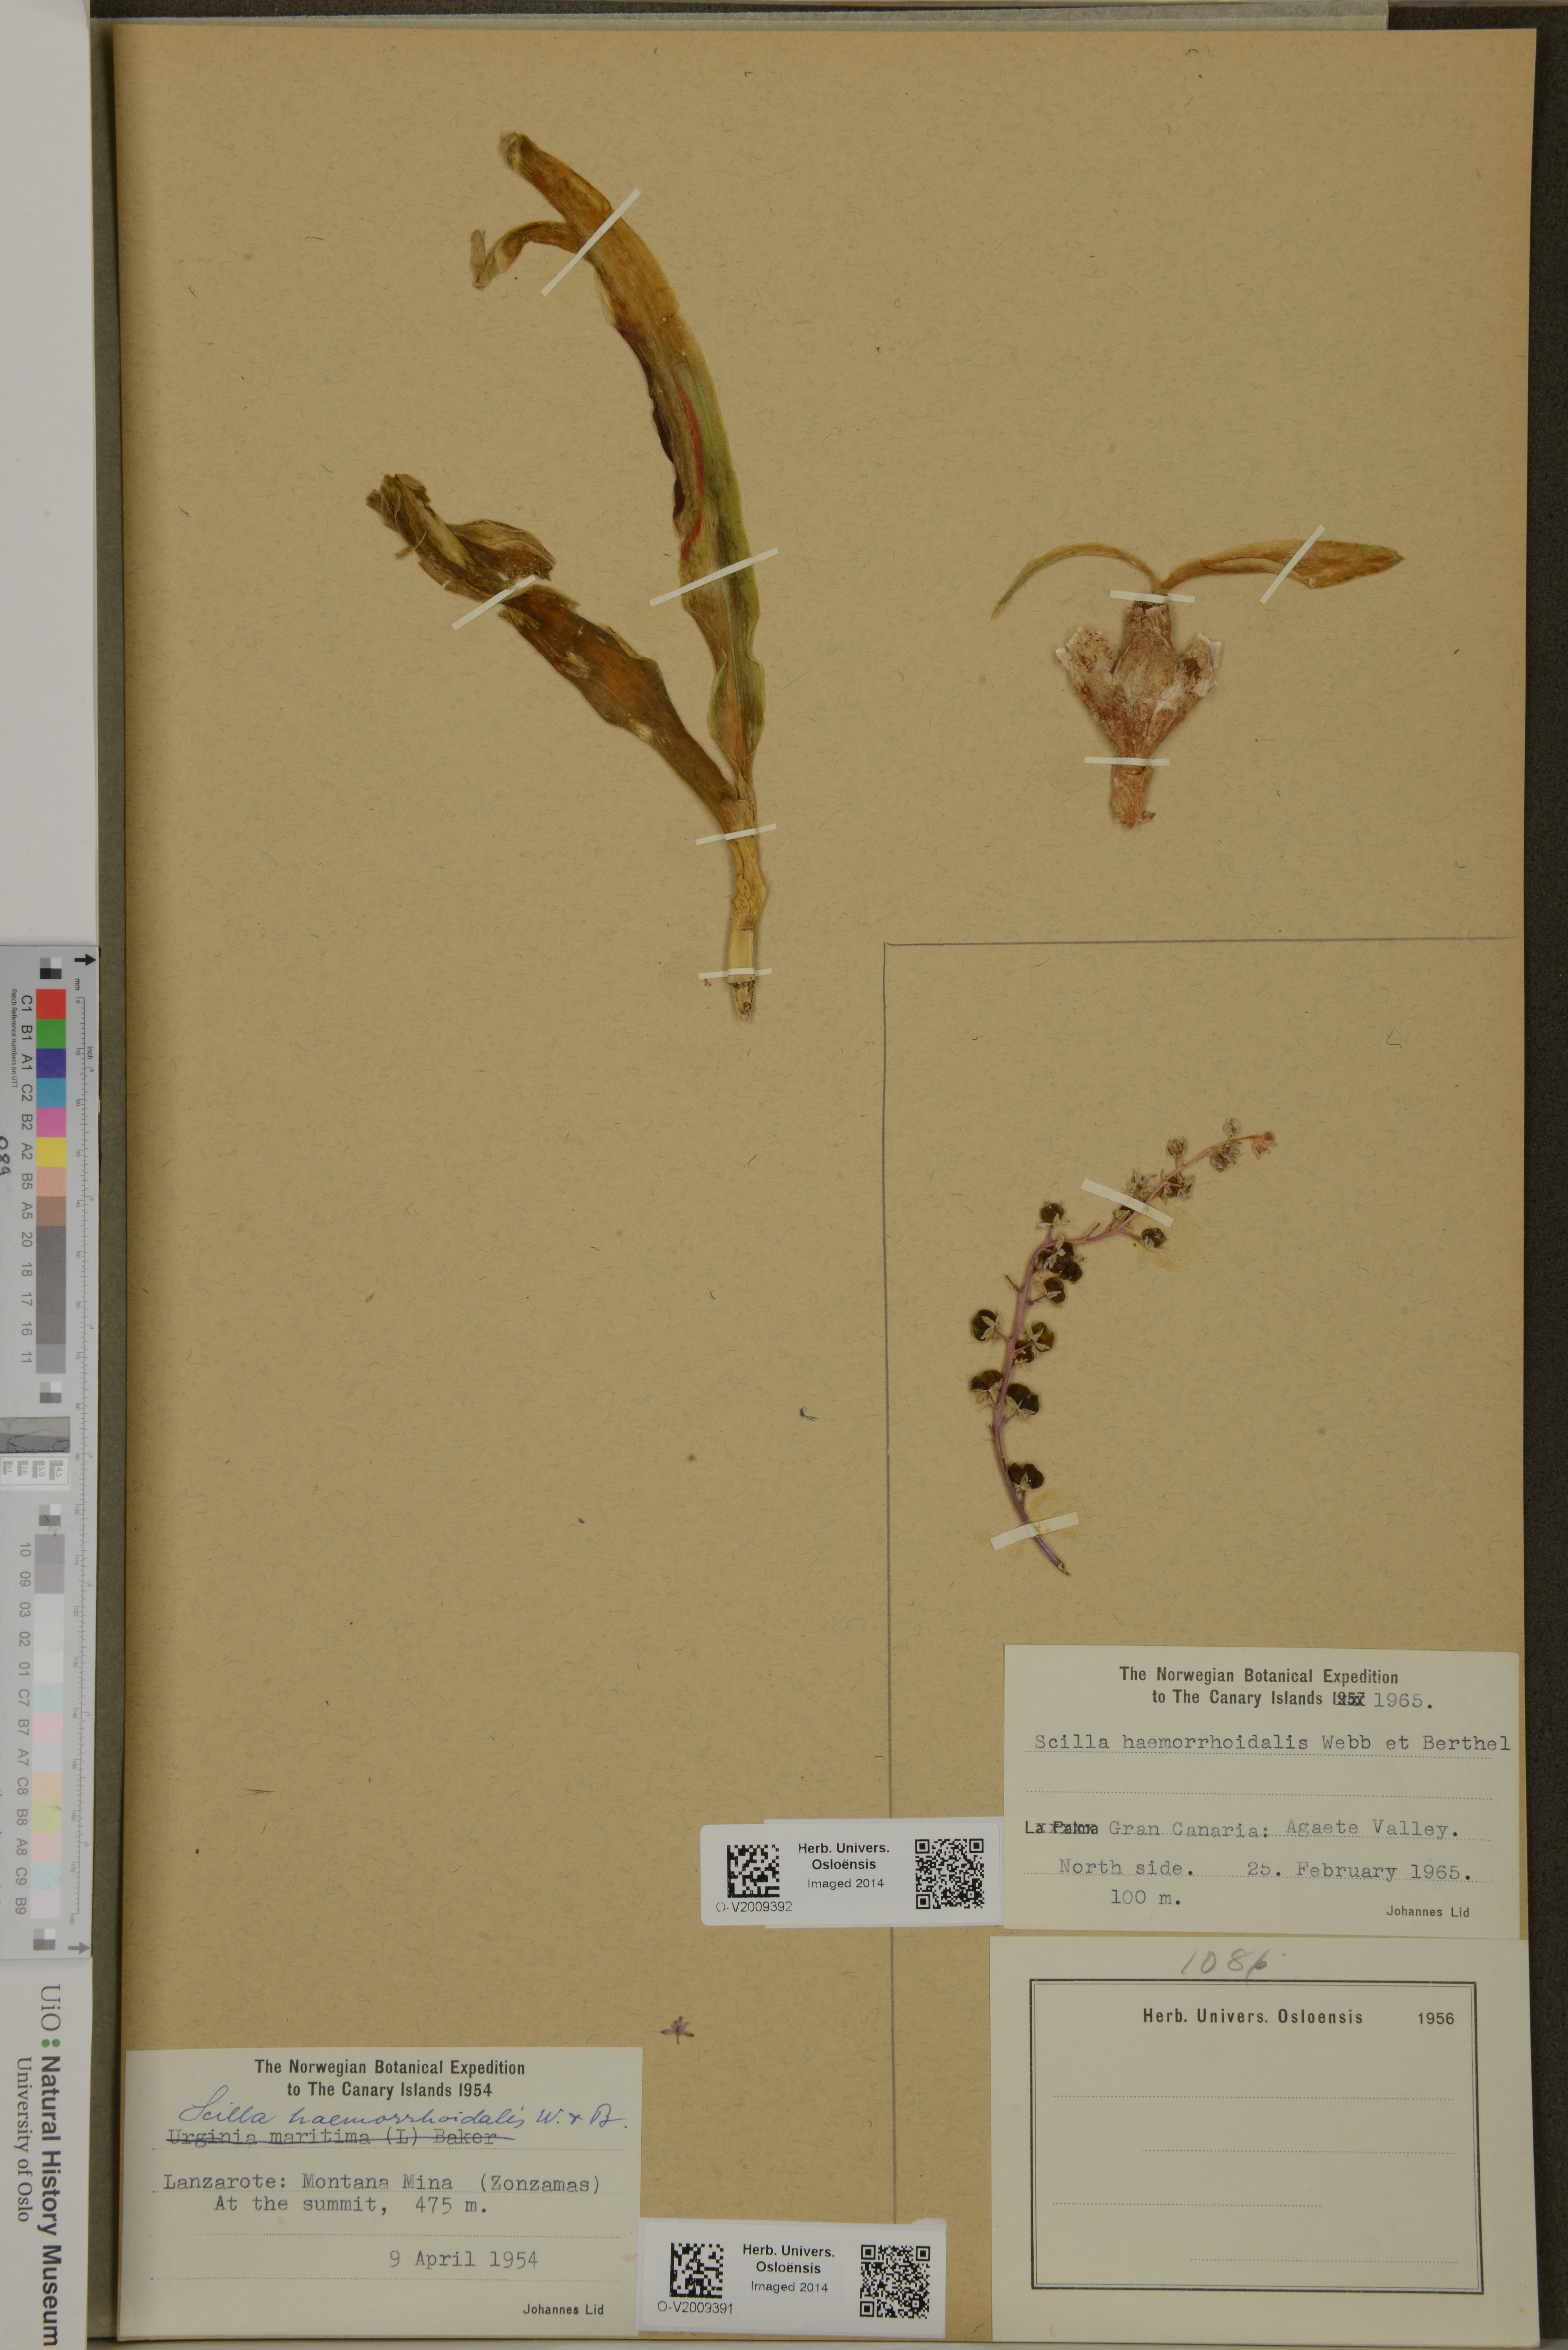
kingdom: Plantae
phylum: Tracheophyta
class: Liliopsida
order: Asparagales
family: Asparagaceae
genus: Scilla
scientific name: Scilla haemorrhoidalis
